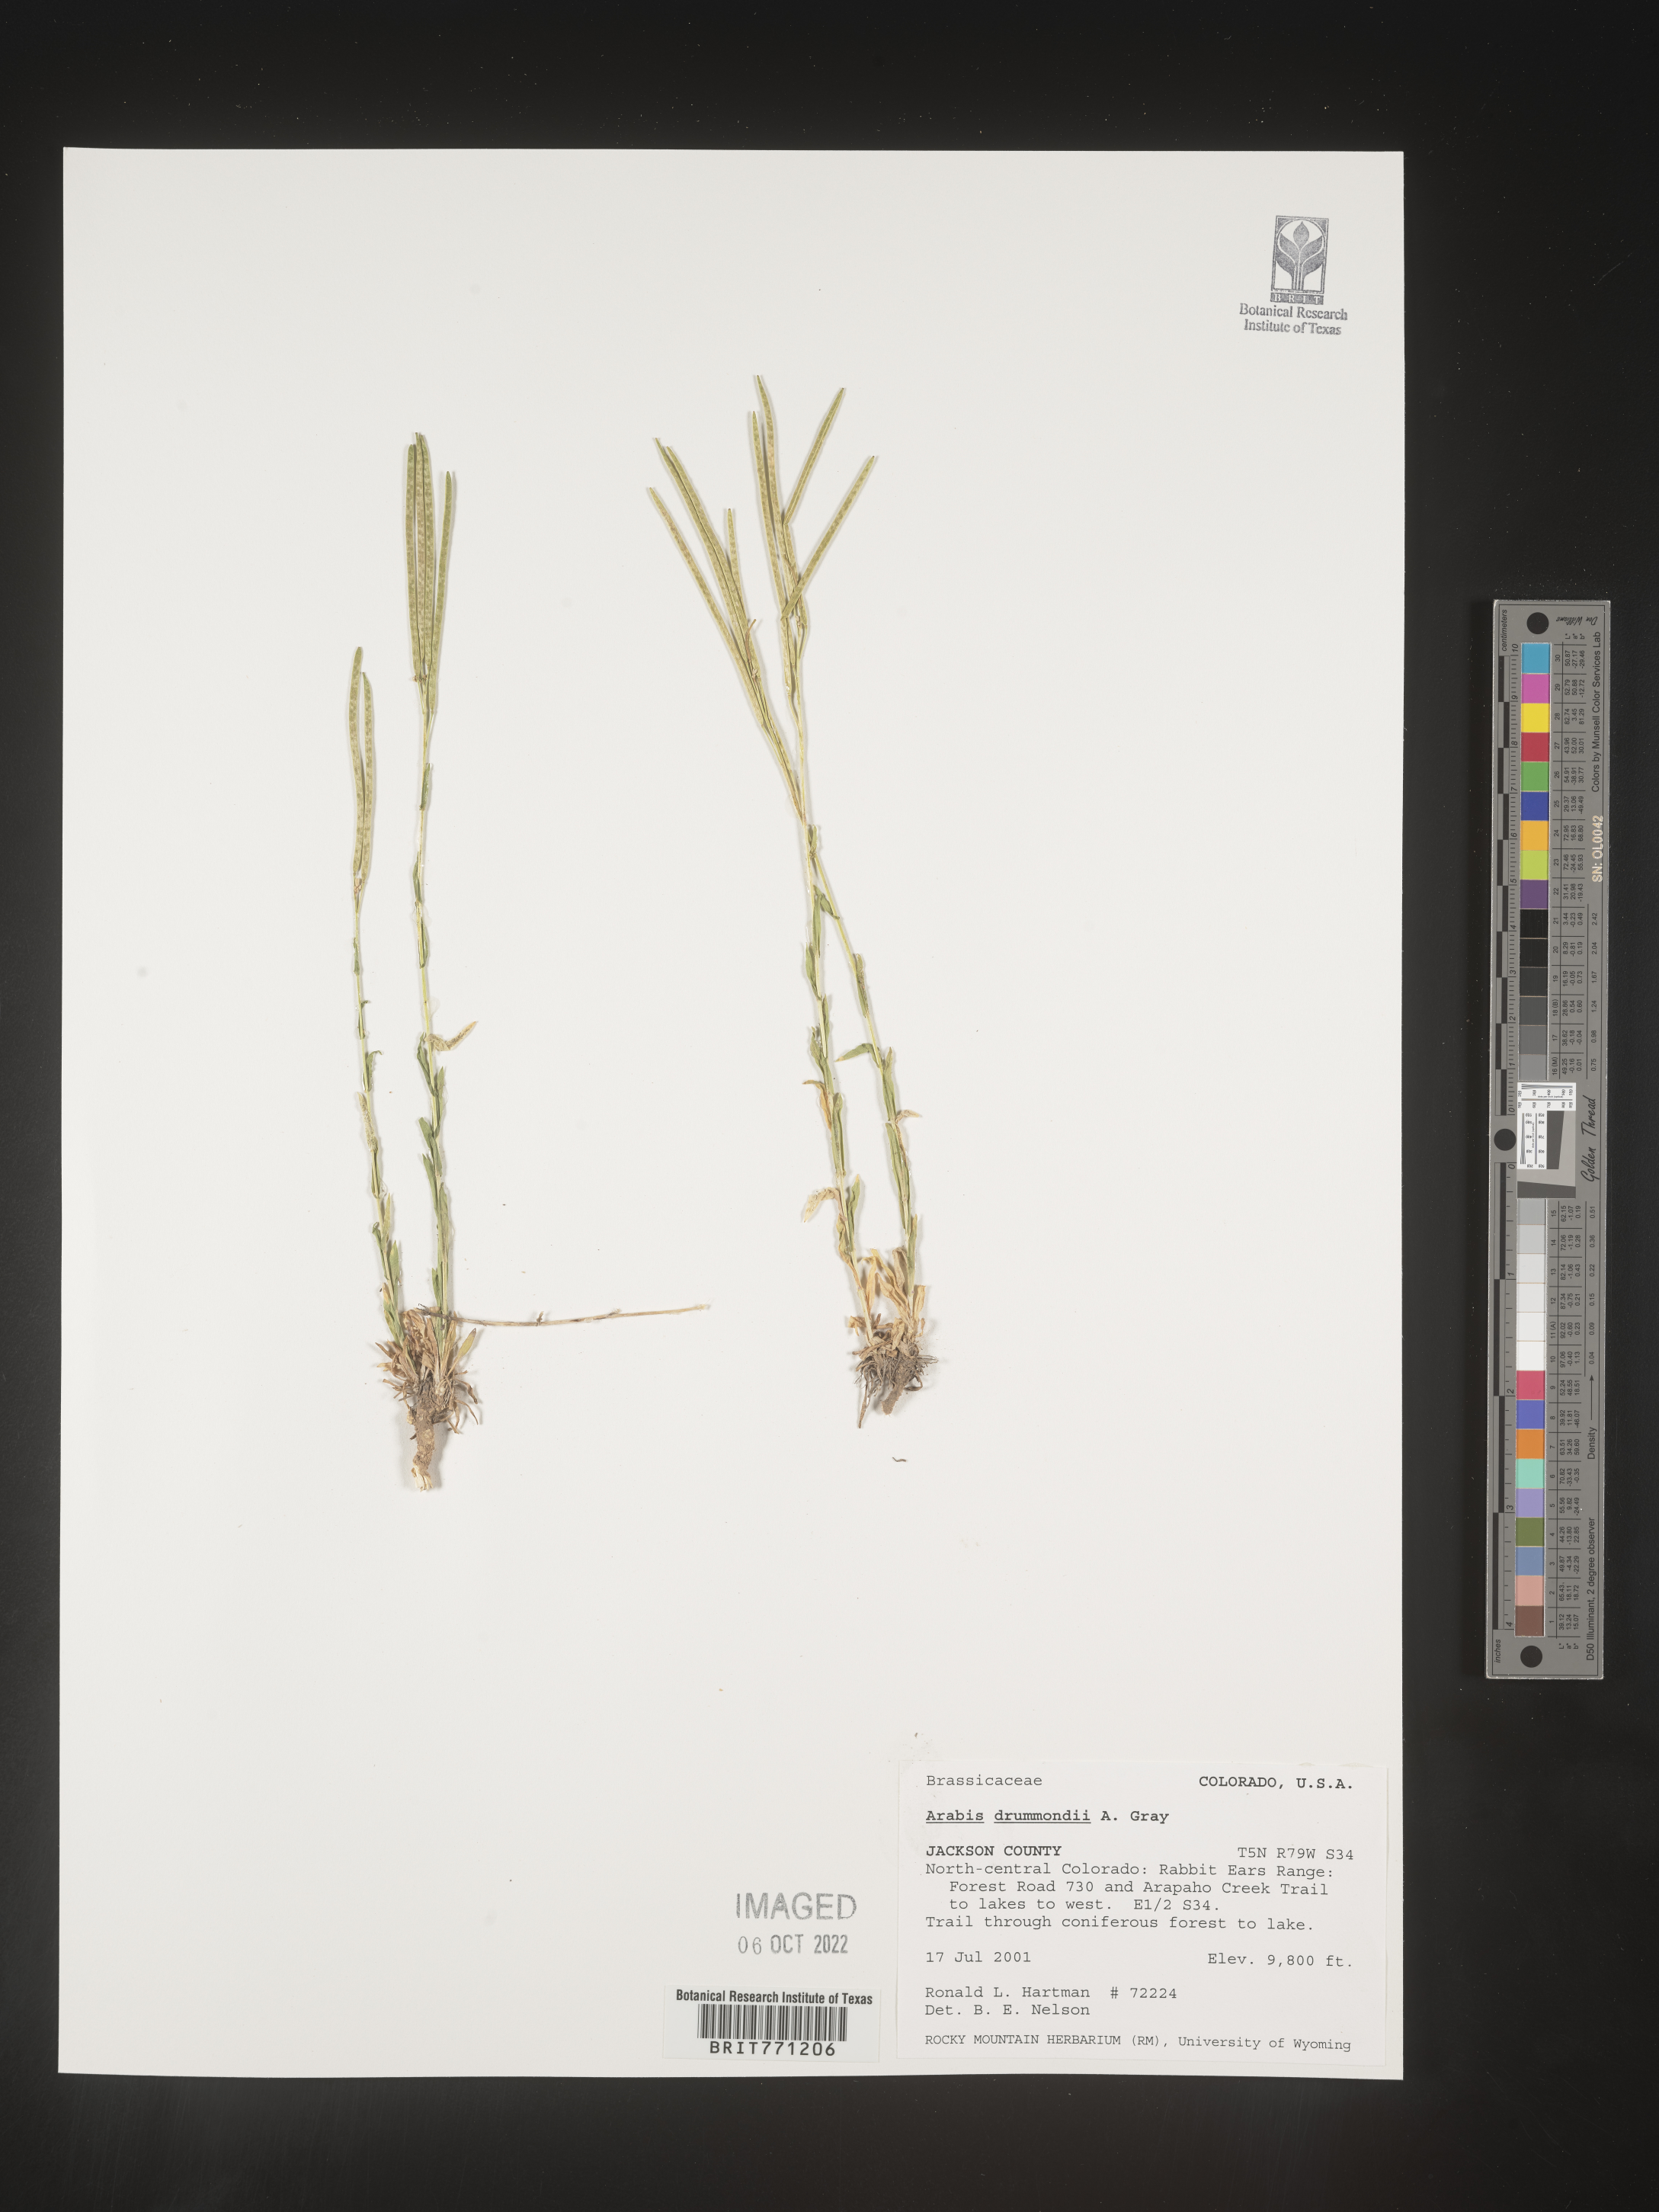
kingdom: Plantae
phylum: Tracheophyta
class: Magnoliopsida
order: Brassicales
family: Brassicaceae
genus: Boechera
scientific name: Boechera stricta
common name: Canadian rockcress
